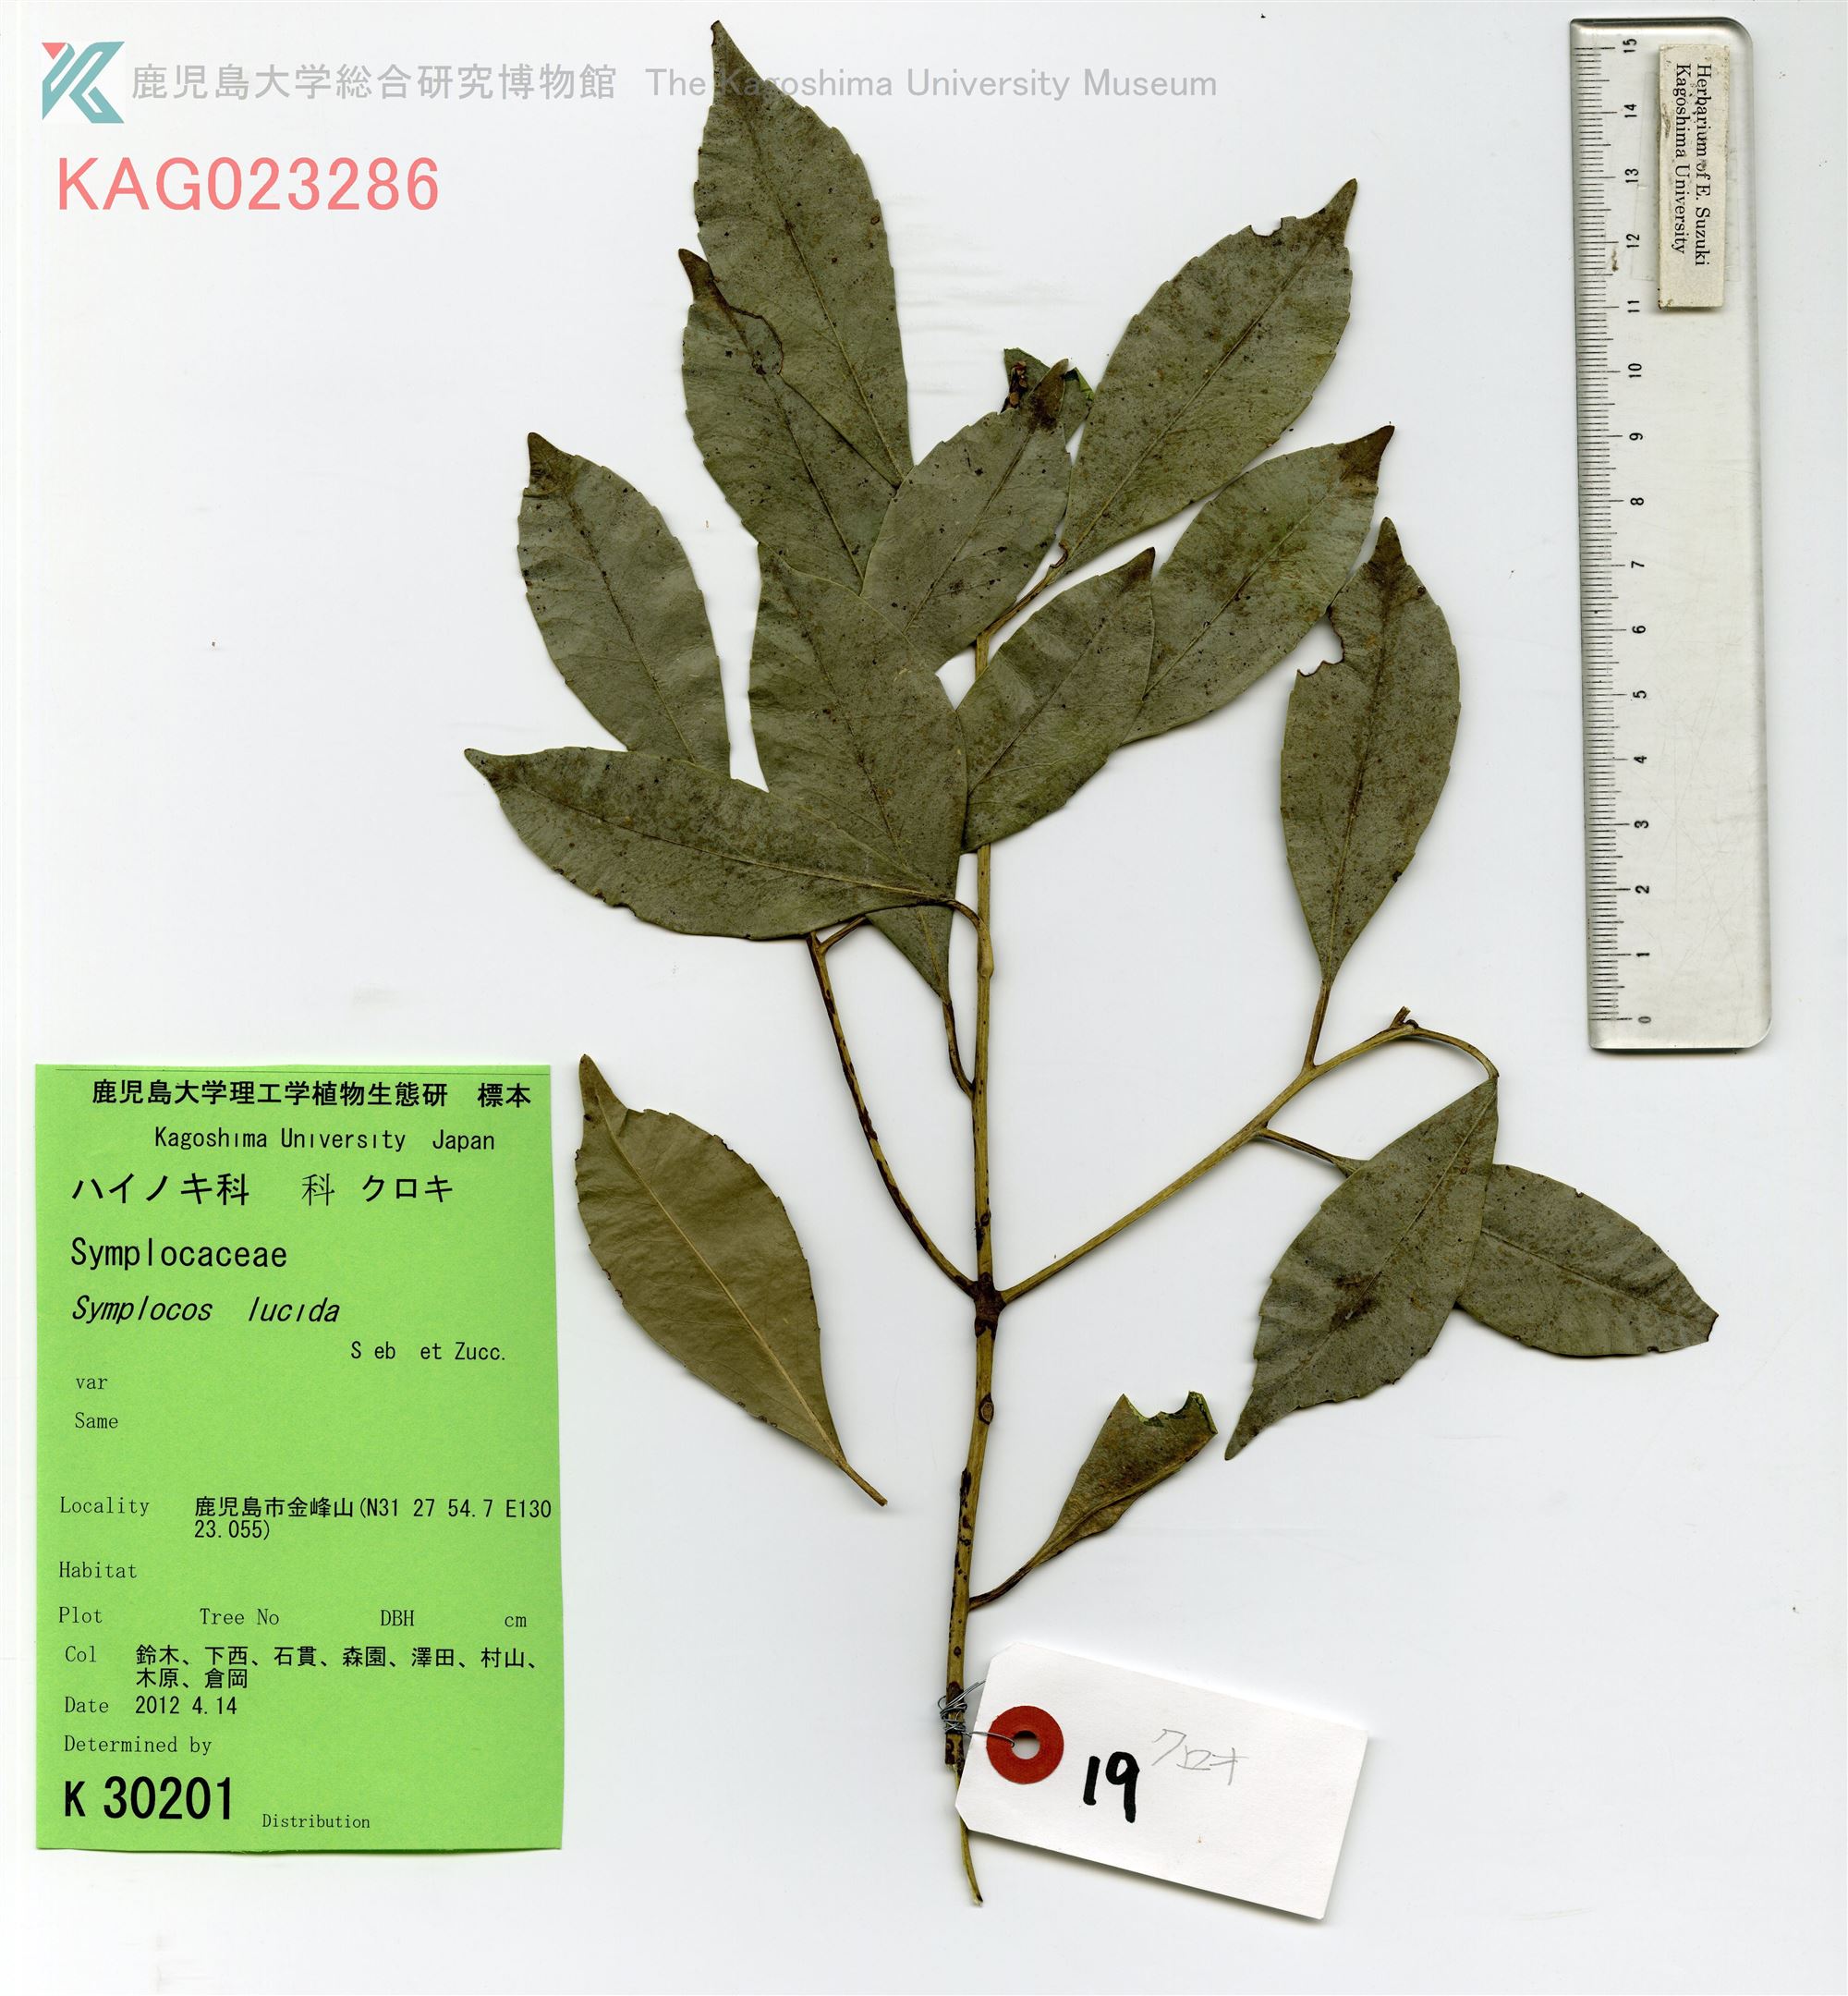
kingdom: Plantae
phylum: Tracheophyta
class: Magnoliopsida
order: Ericales
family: Symplocaceae
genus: Symplocos
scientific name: Symplocos nakaharae
